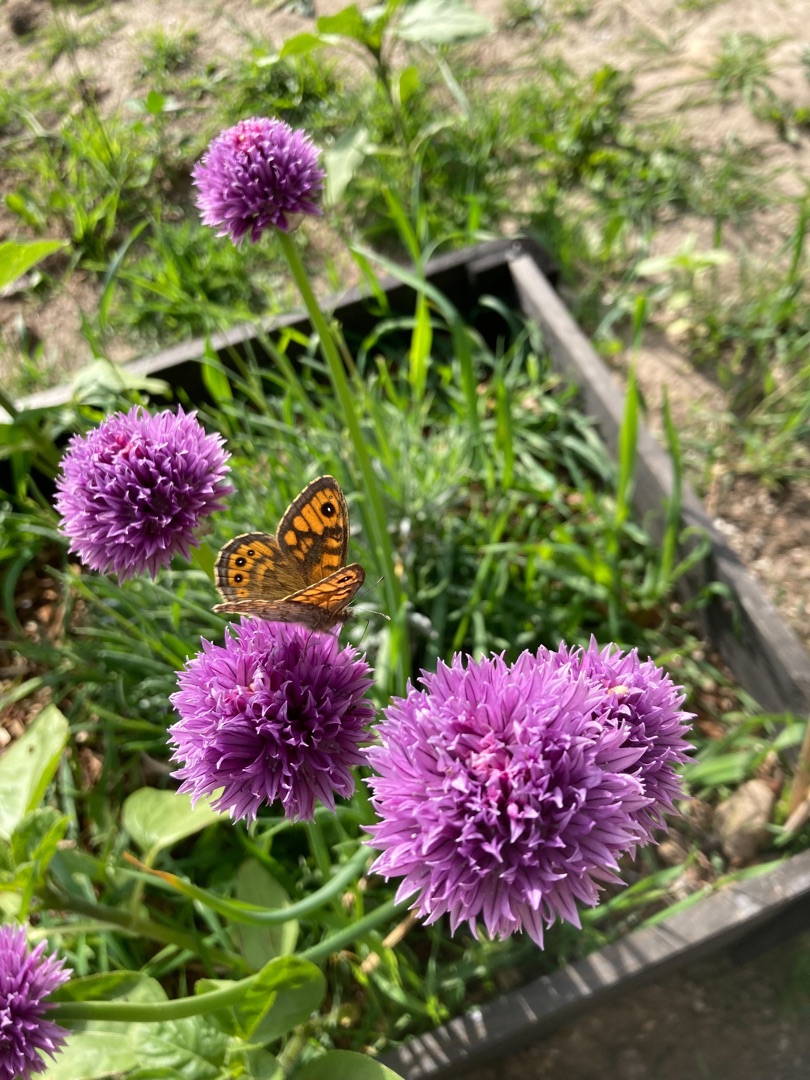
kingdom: Animalia
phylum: Arthropoda
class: Insecta
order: Lepidoptera
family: Nymphalidae
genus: Pararge
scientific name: Pararge Lasiommata megera
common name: Vejrandøje
